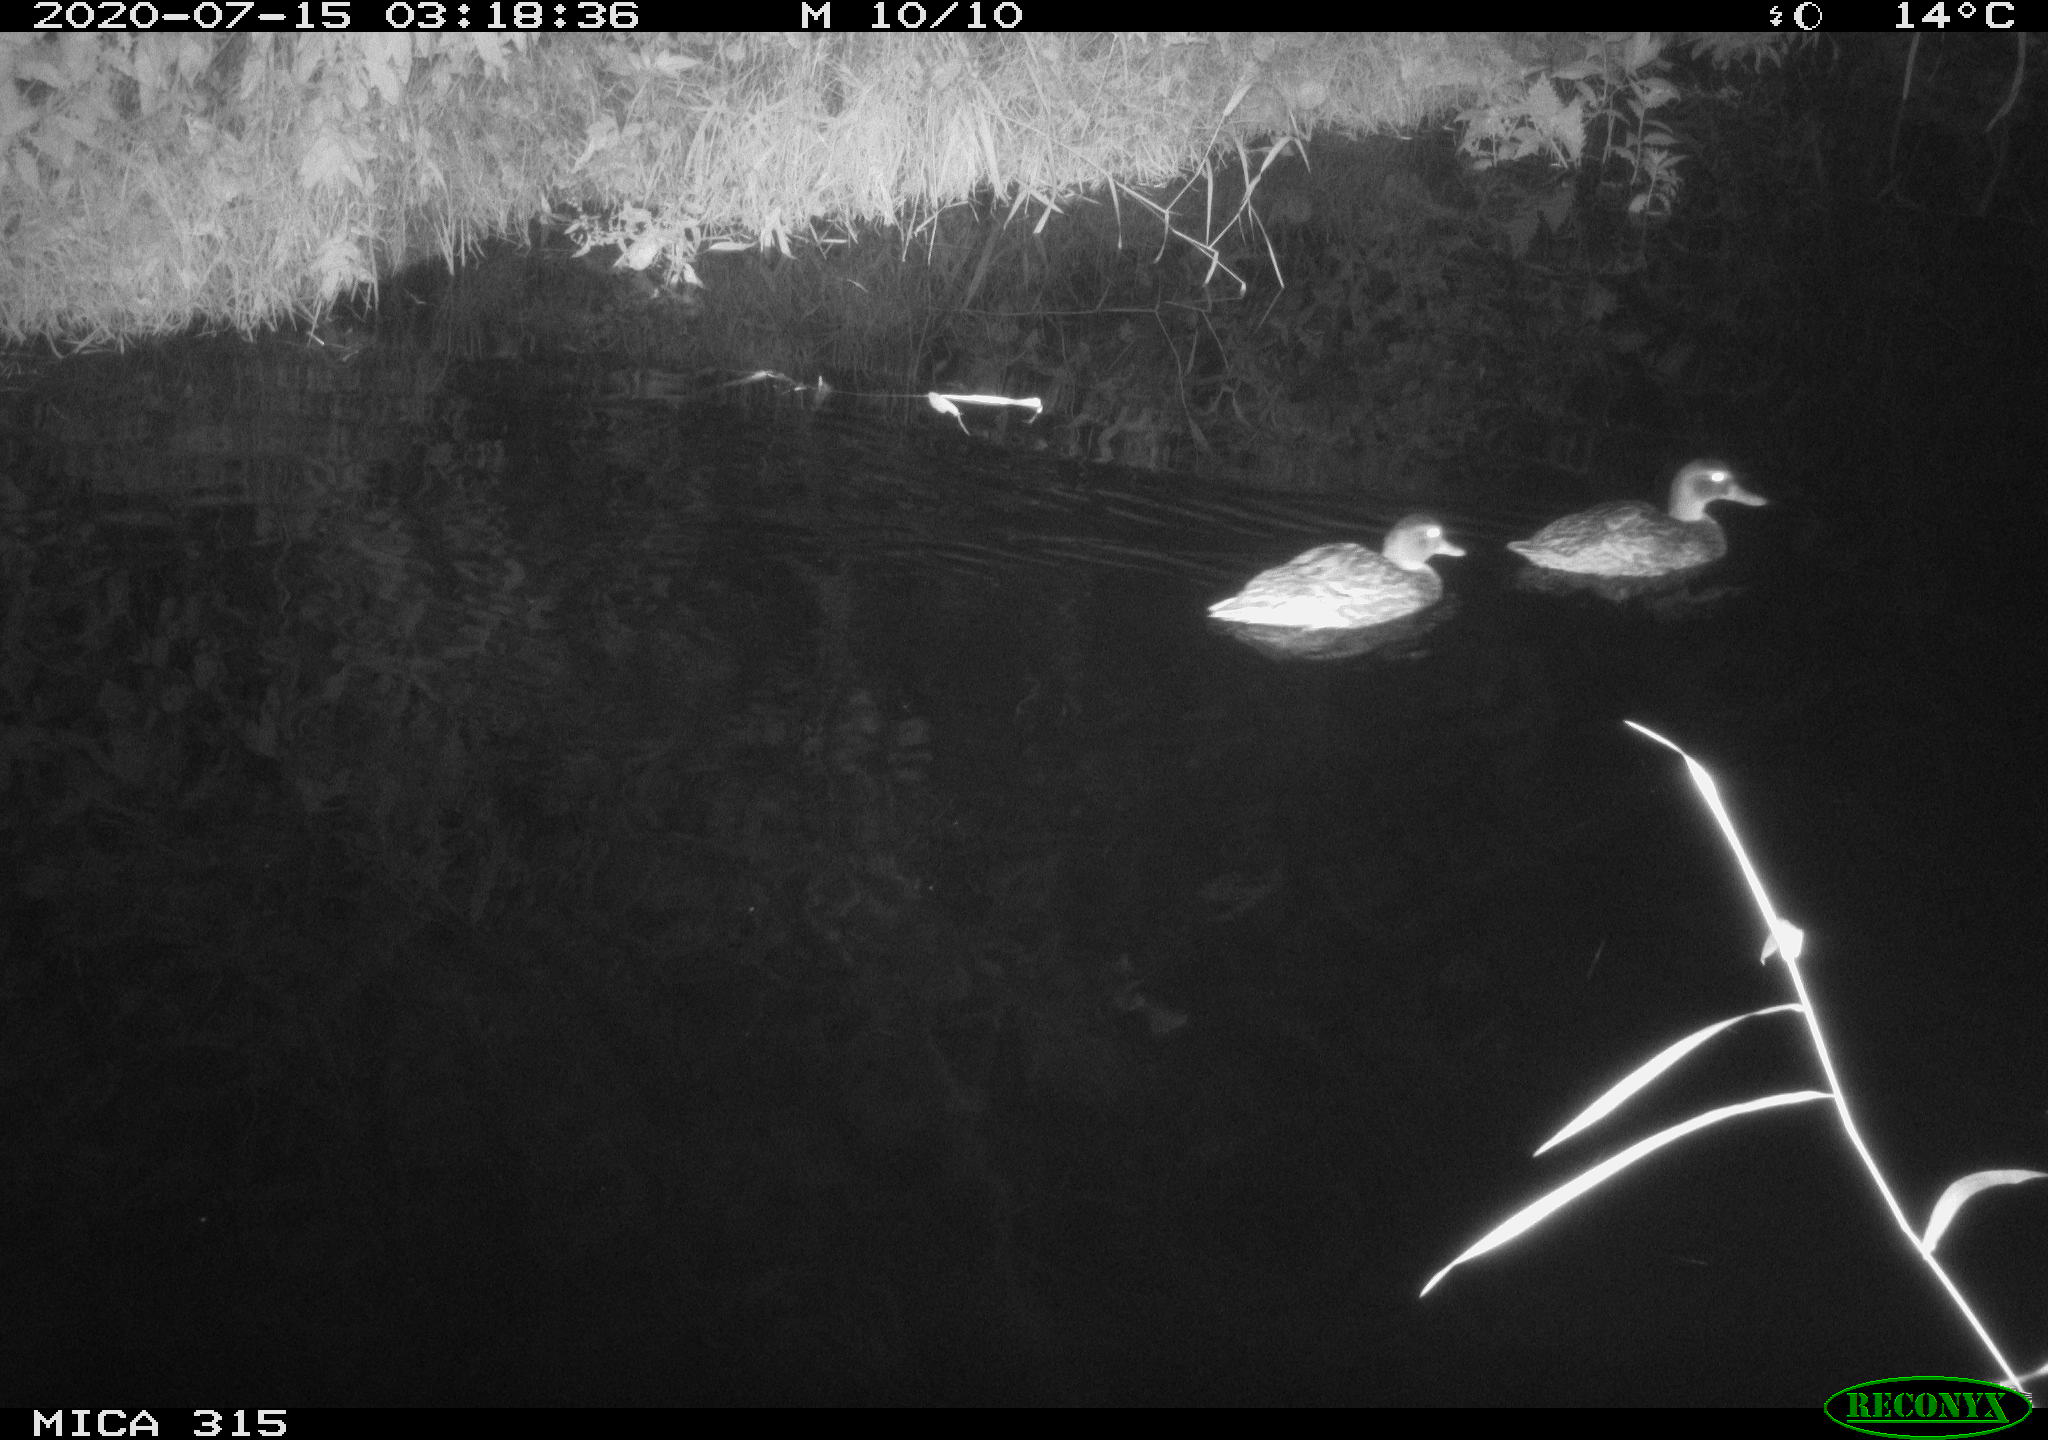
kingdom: Animalia
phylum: Chordata
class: Aves
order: Anseriformes
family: Anatidae
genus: Anas
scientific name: Anas platyrhynchos
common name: Mallard
